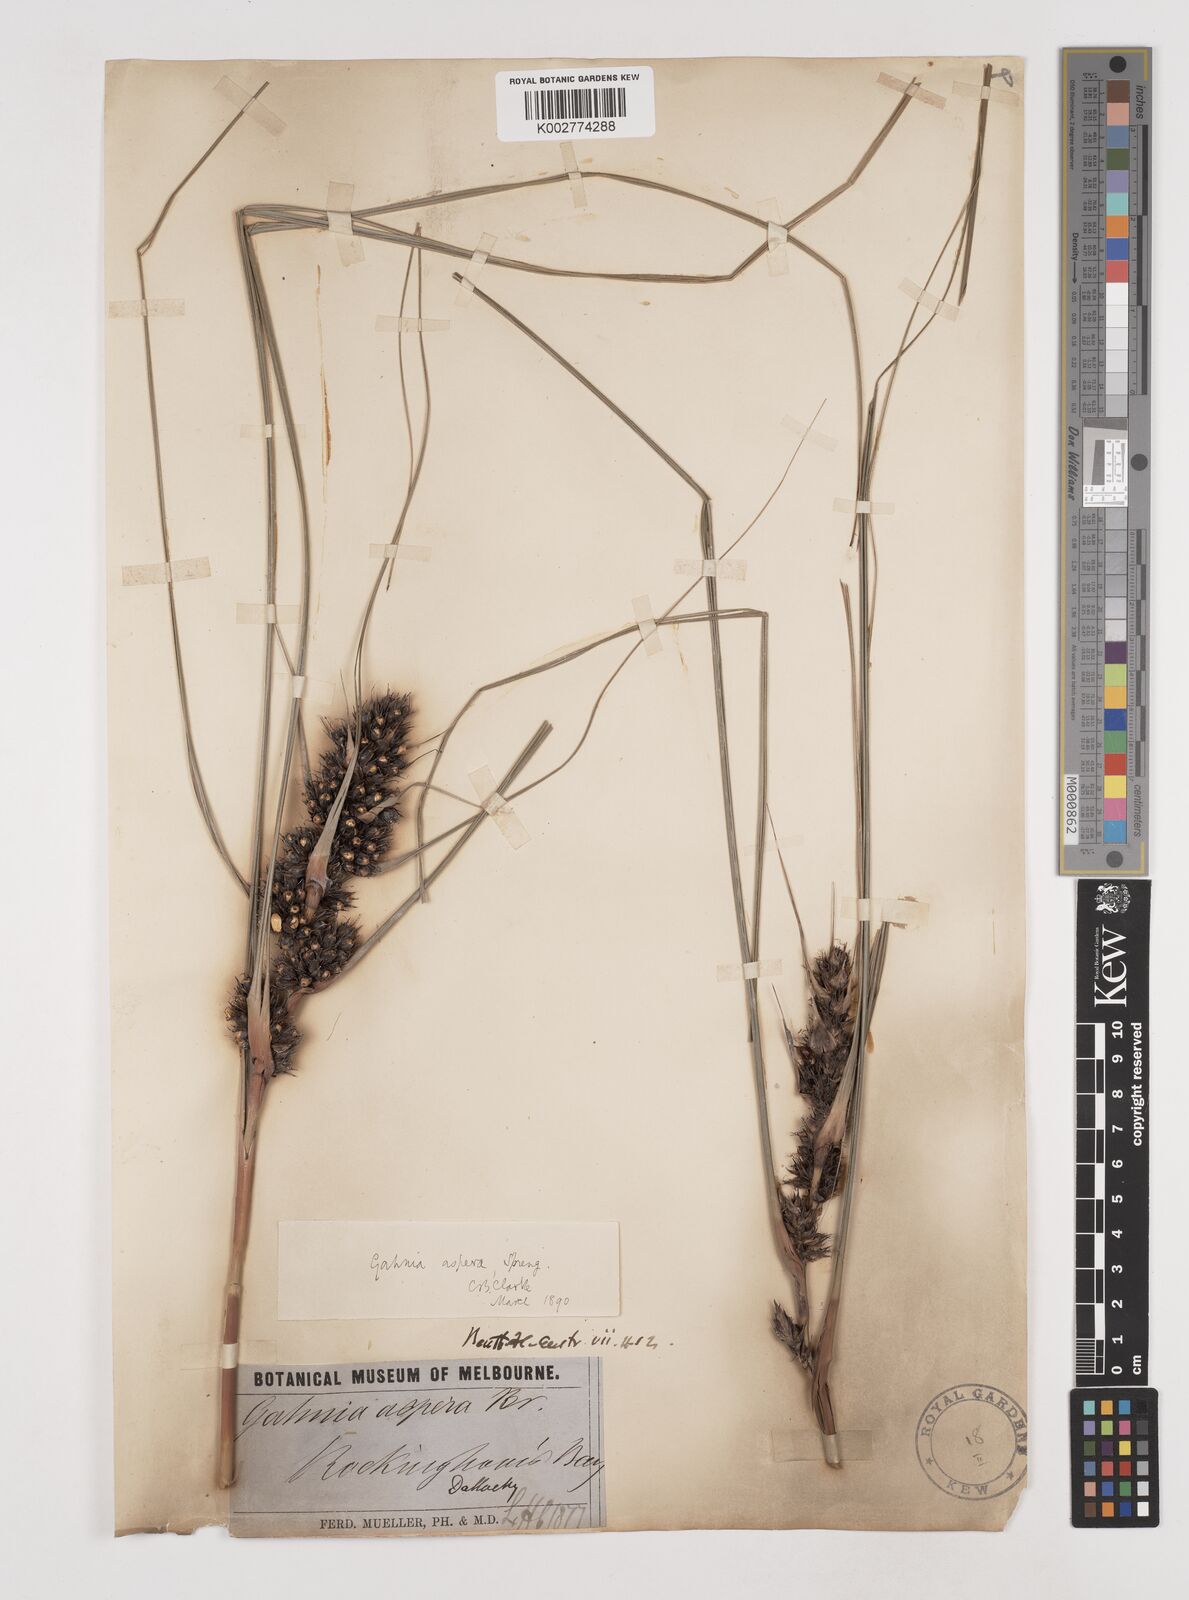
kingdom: Plantae
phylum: Tracheophyta
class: Liliopsida
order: Poales
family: Cyperaceae
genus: Gahnia
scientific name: Gahnia aspera
